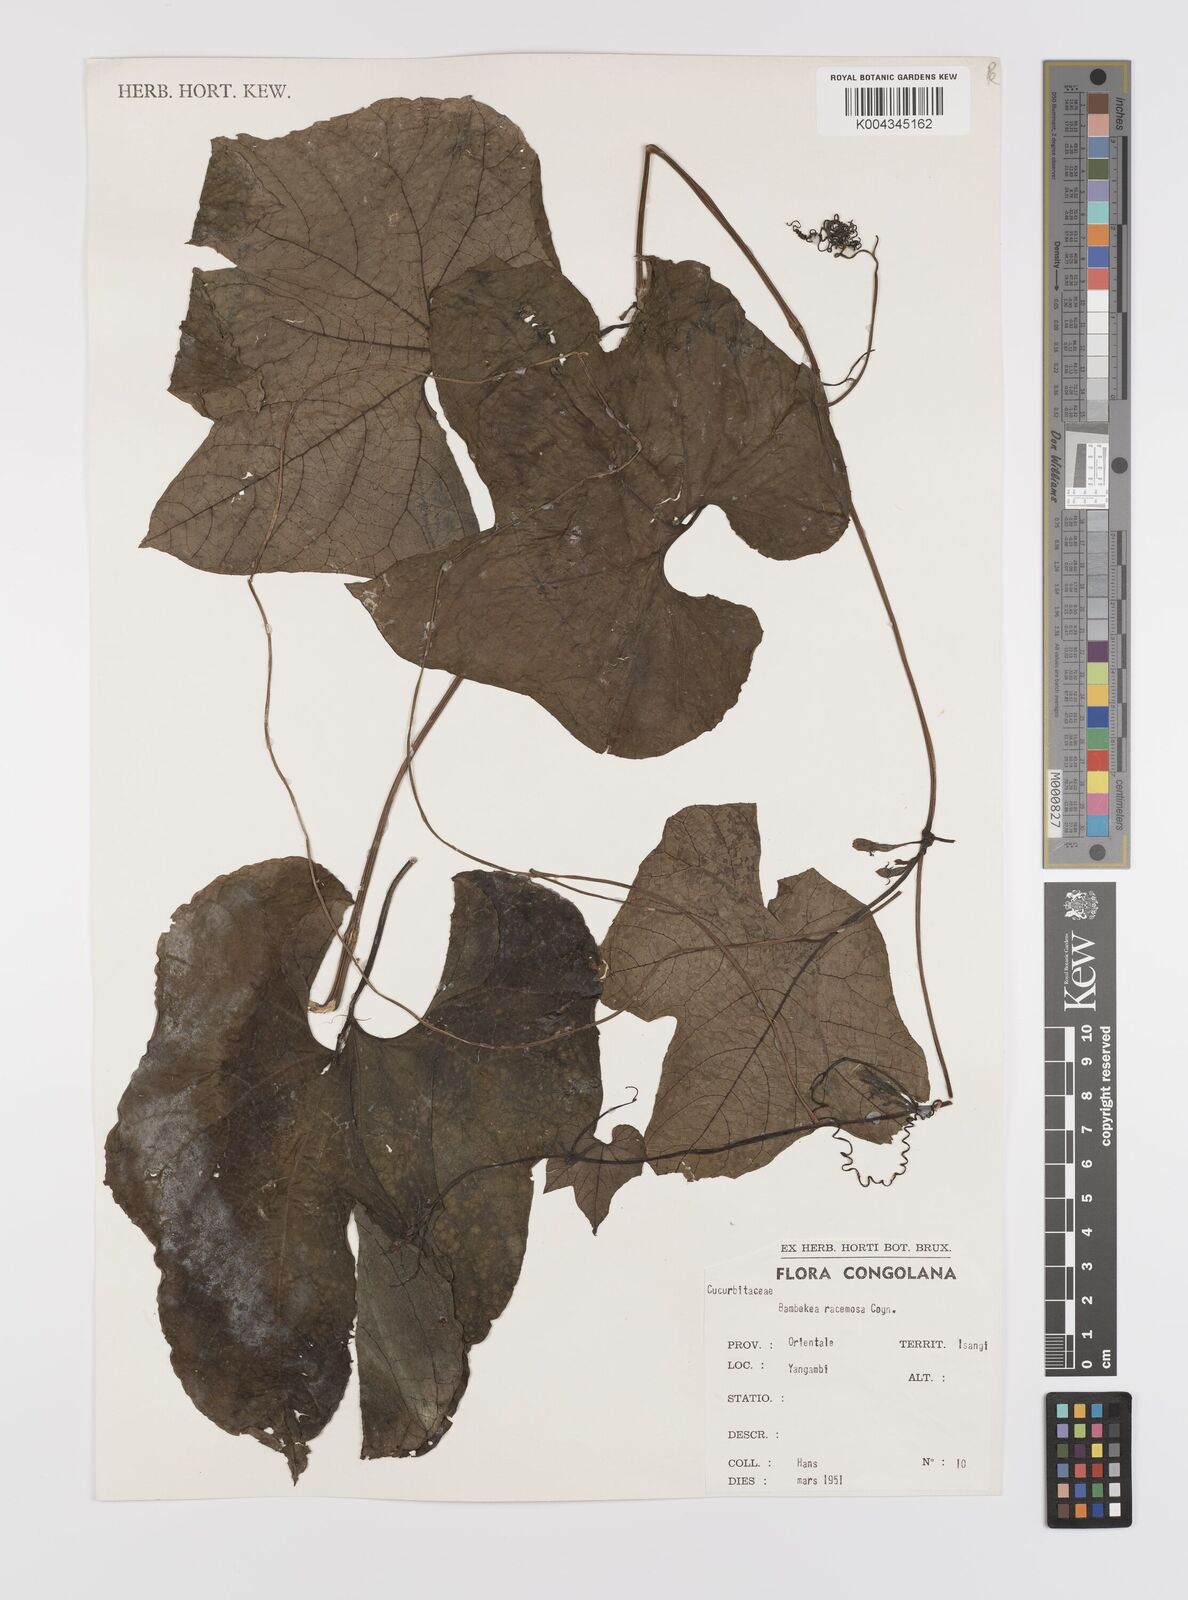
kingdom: Plantae
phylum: Tracheophyta
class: Magnoliopsida
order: Cucurbitales
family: Cucurbitaceae
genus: Bambekea
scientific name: Bambekea racemosa
